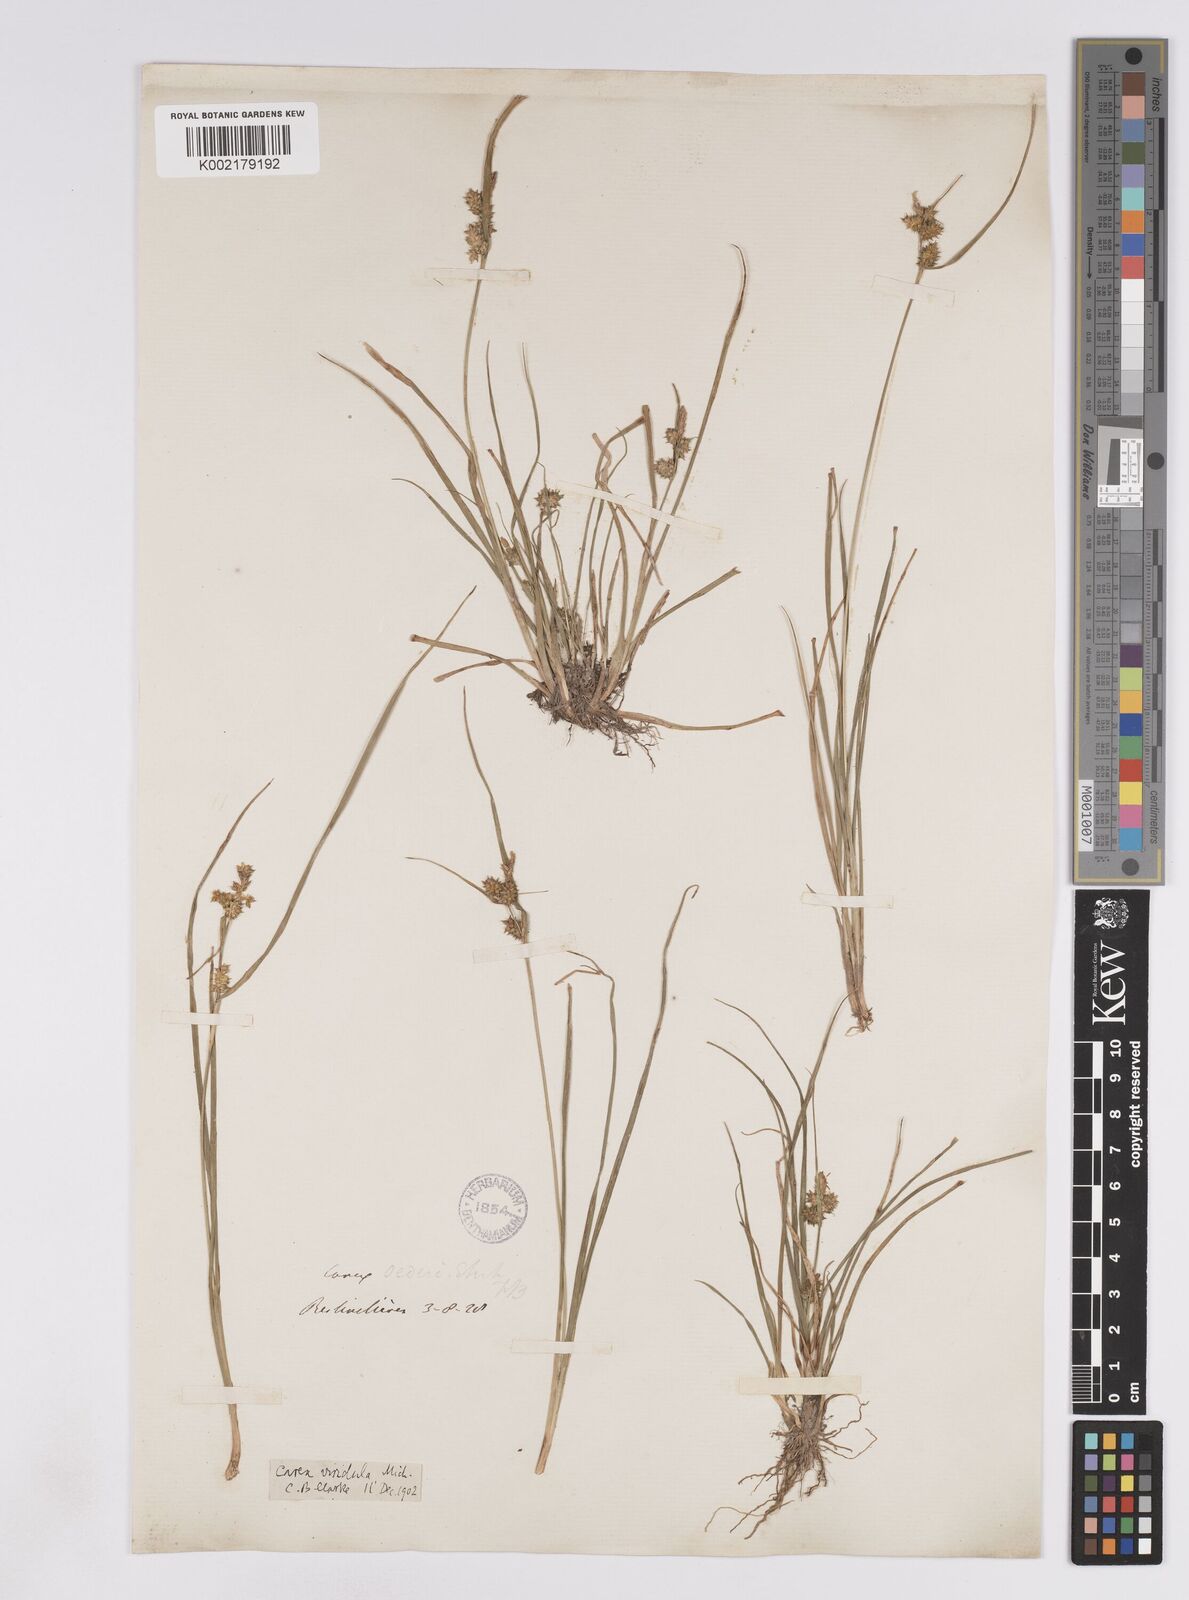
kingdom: Plantae
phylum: Tracheophyta
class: Liliopsida
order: Poales
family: Cyperaceae
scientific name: Cyperaceae
